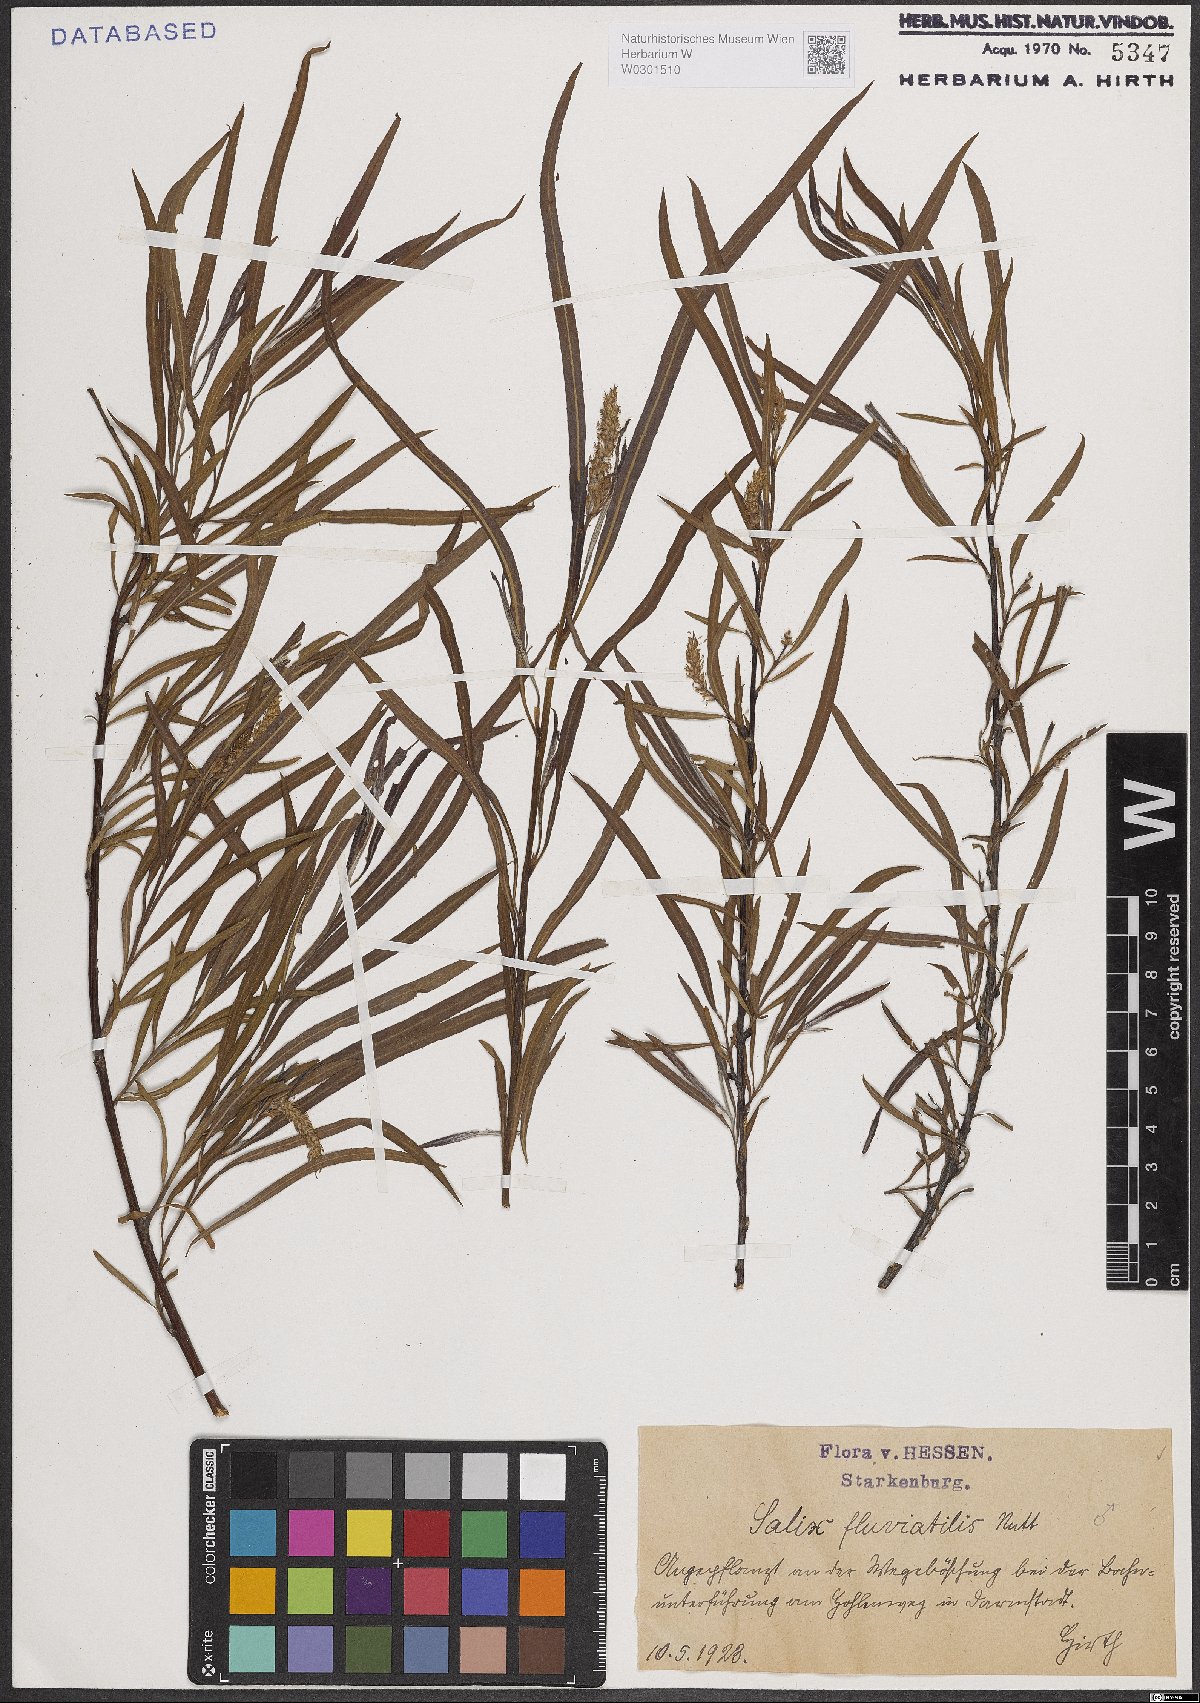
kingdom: Plantae
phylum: Tracheophyta
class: Magnoliopsida
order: Malpighiales
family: Salicaceae
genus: Salix
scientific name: Salix melanopsis
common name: Dusky willow
